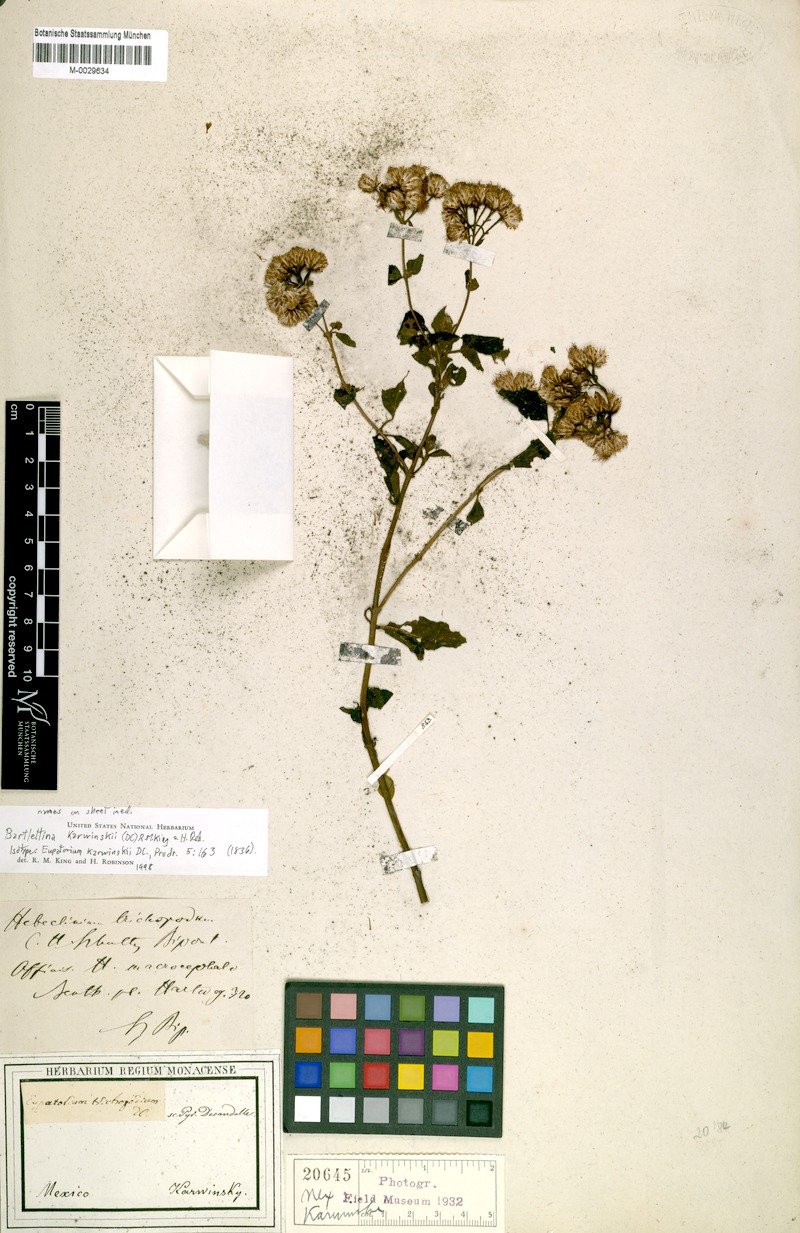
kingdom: Plantae
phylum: Tracheophyta
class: Magnoliopsida
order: Asterales
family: Asteraceae
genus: Bartlettina
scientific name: Bartlettina karwinskiana
